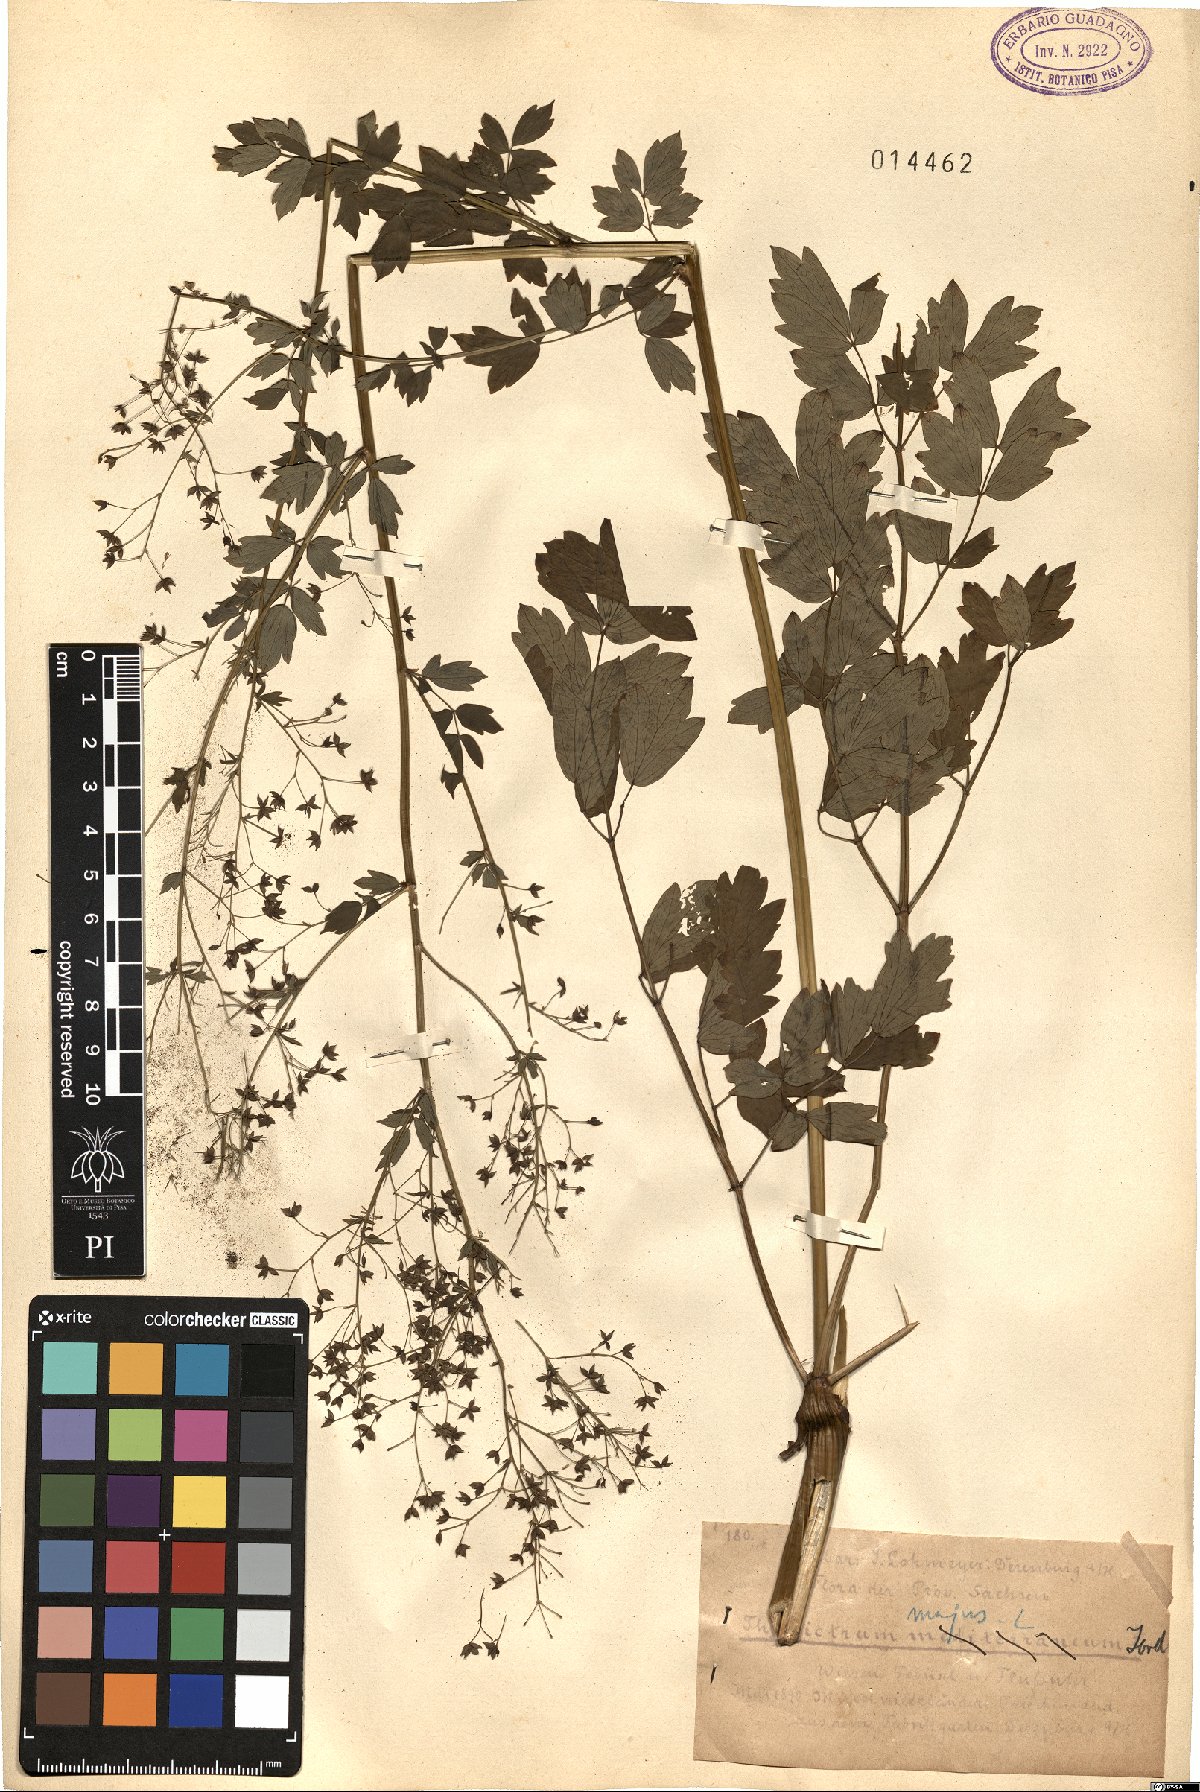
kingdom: Plantae
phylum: Tracheophyta
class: Magnoliopsida
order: Ranunculales
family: Ranunculaceae
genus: Thalictrum
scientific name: Thalictrum minus
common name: Lesser meadow-rue
